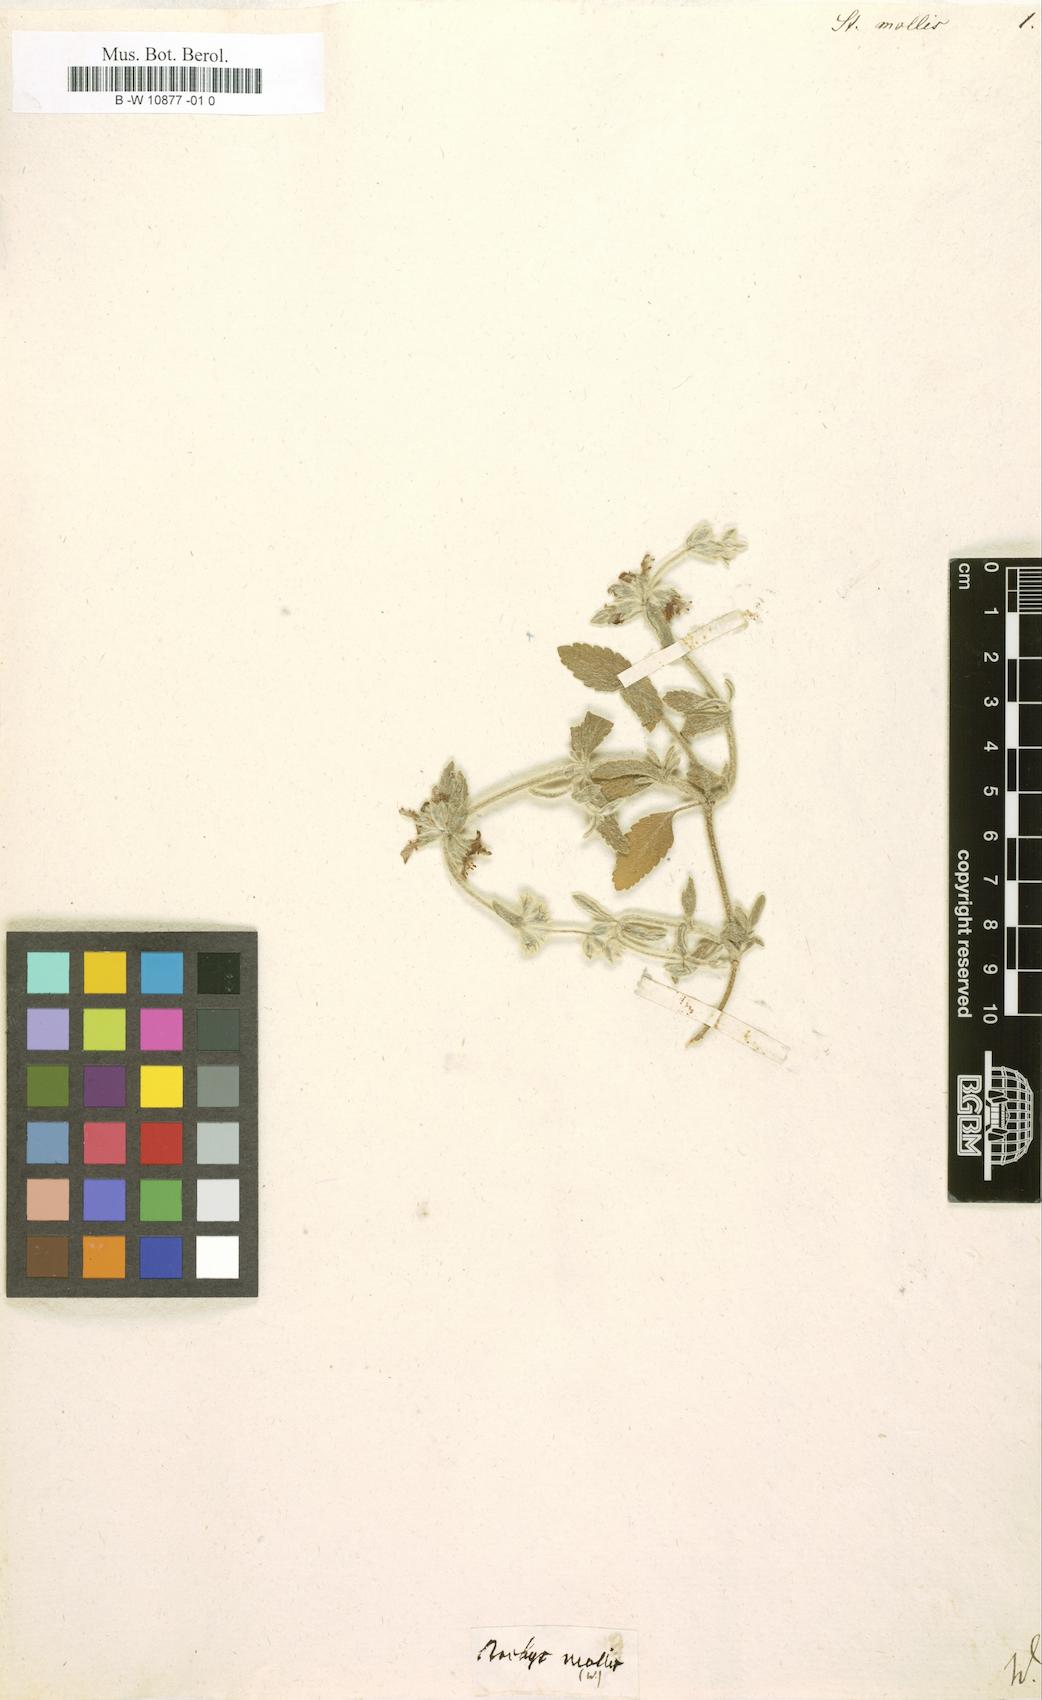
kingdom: Plantae
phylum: Tracheophyta
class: Magnoliopsida
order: Lamiales
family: Lamiaceae
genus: Stachys
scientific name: Stachys arenaria
